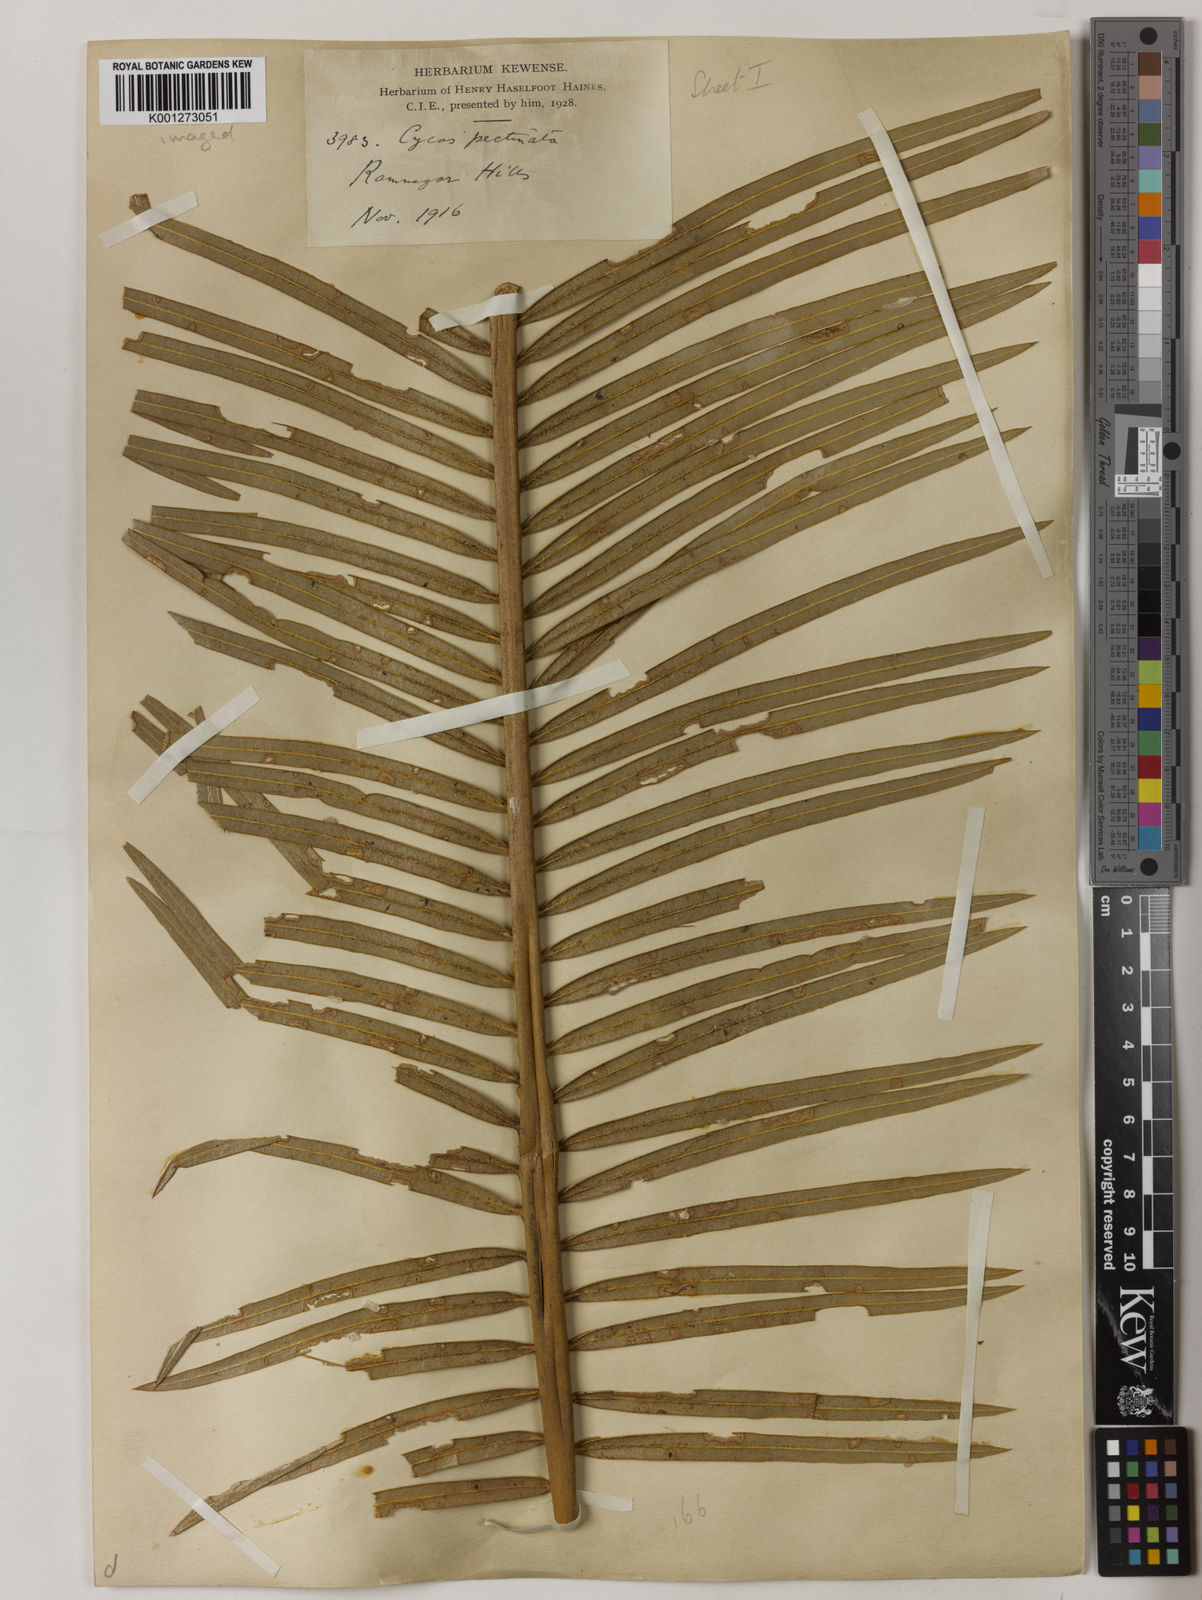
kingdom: Plantae
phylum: Tracheophyta
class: Cycadopsida
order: Cycadales
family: Cycadaceae
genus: Cycas
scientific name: Cycas pectinata
